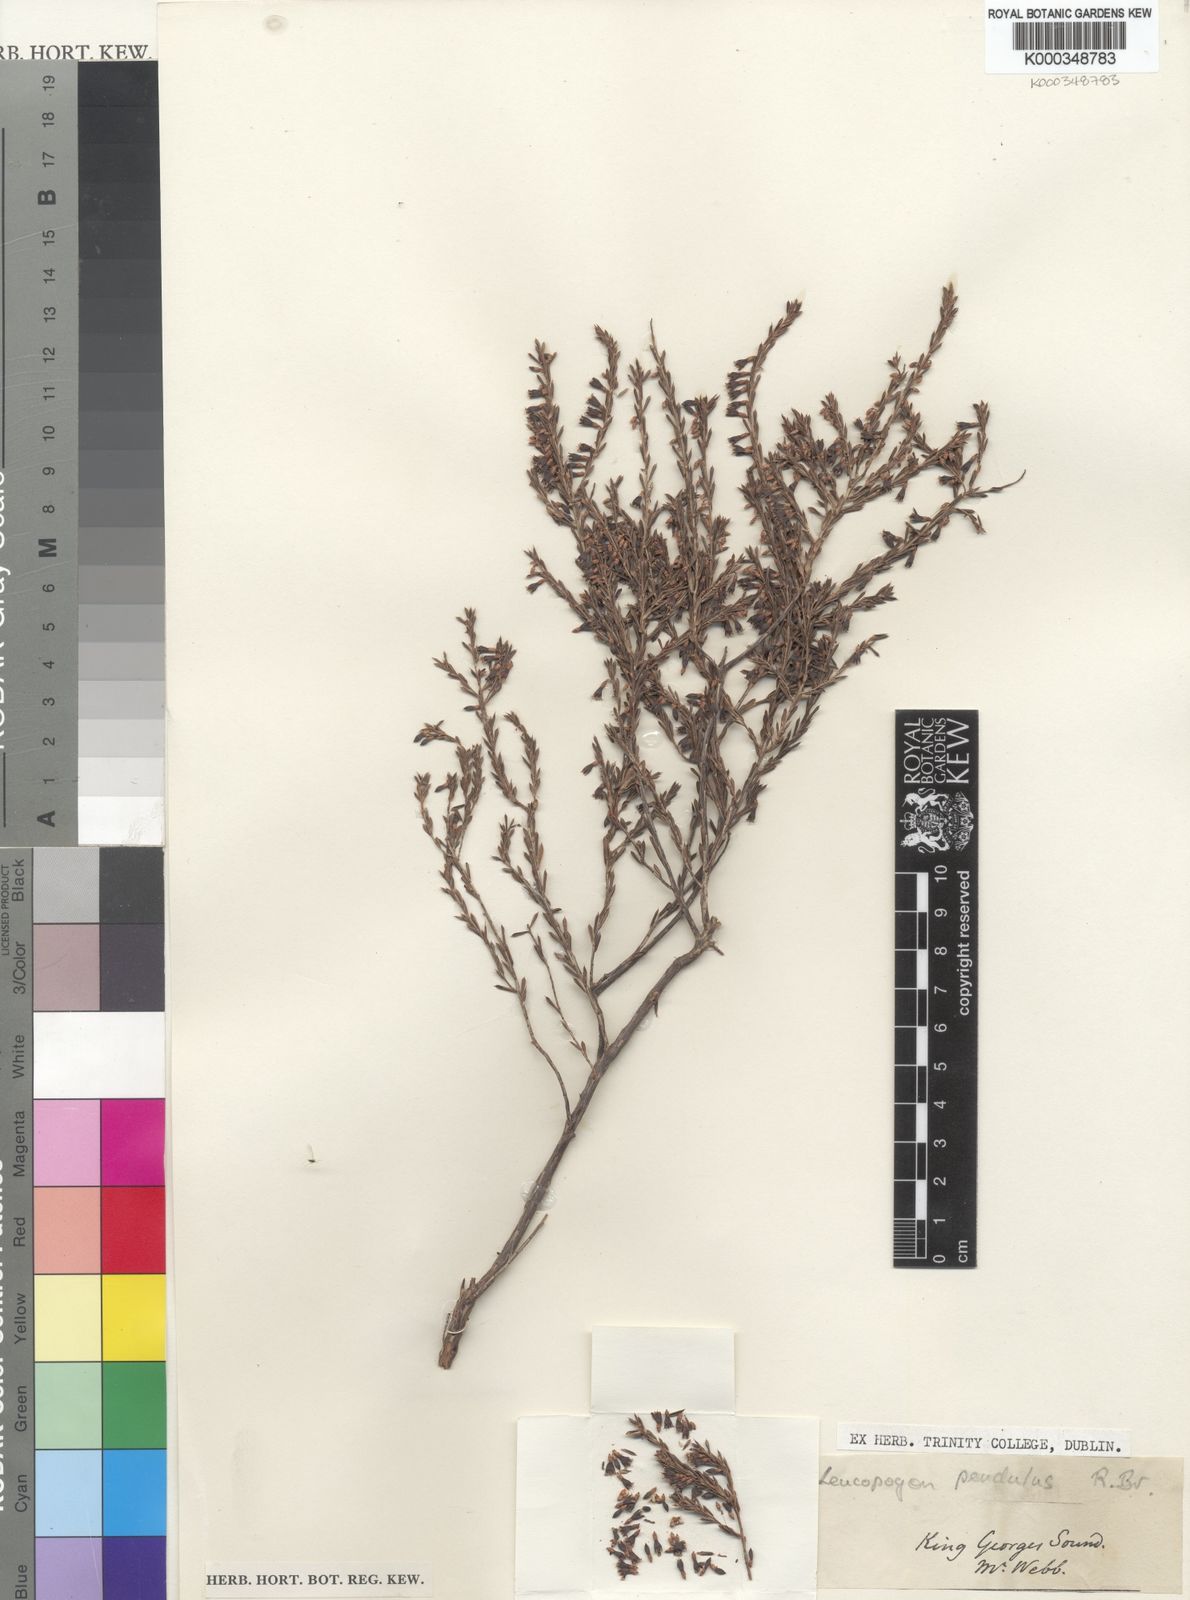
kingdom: Plantae
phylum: Tracheophyta
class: Magnoliopsida
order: Ericales
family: Ericaceae
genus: Styphelia
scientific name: Styphelia pendula
